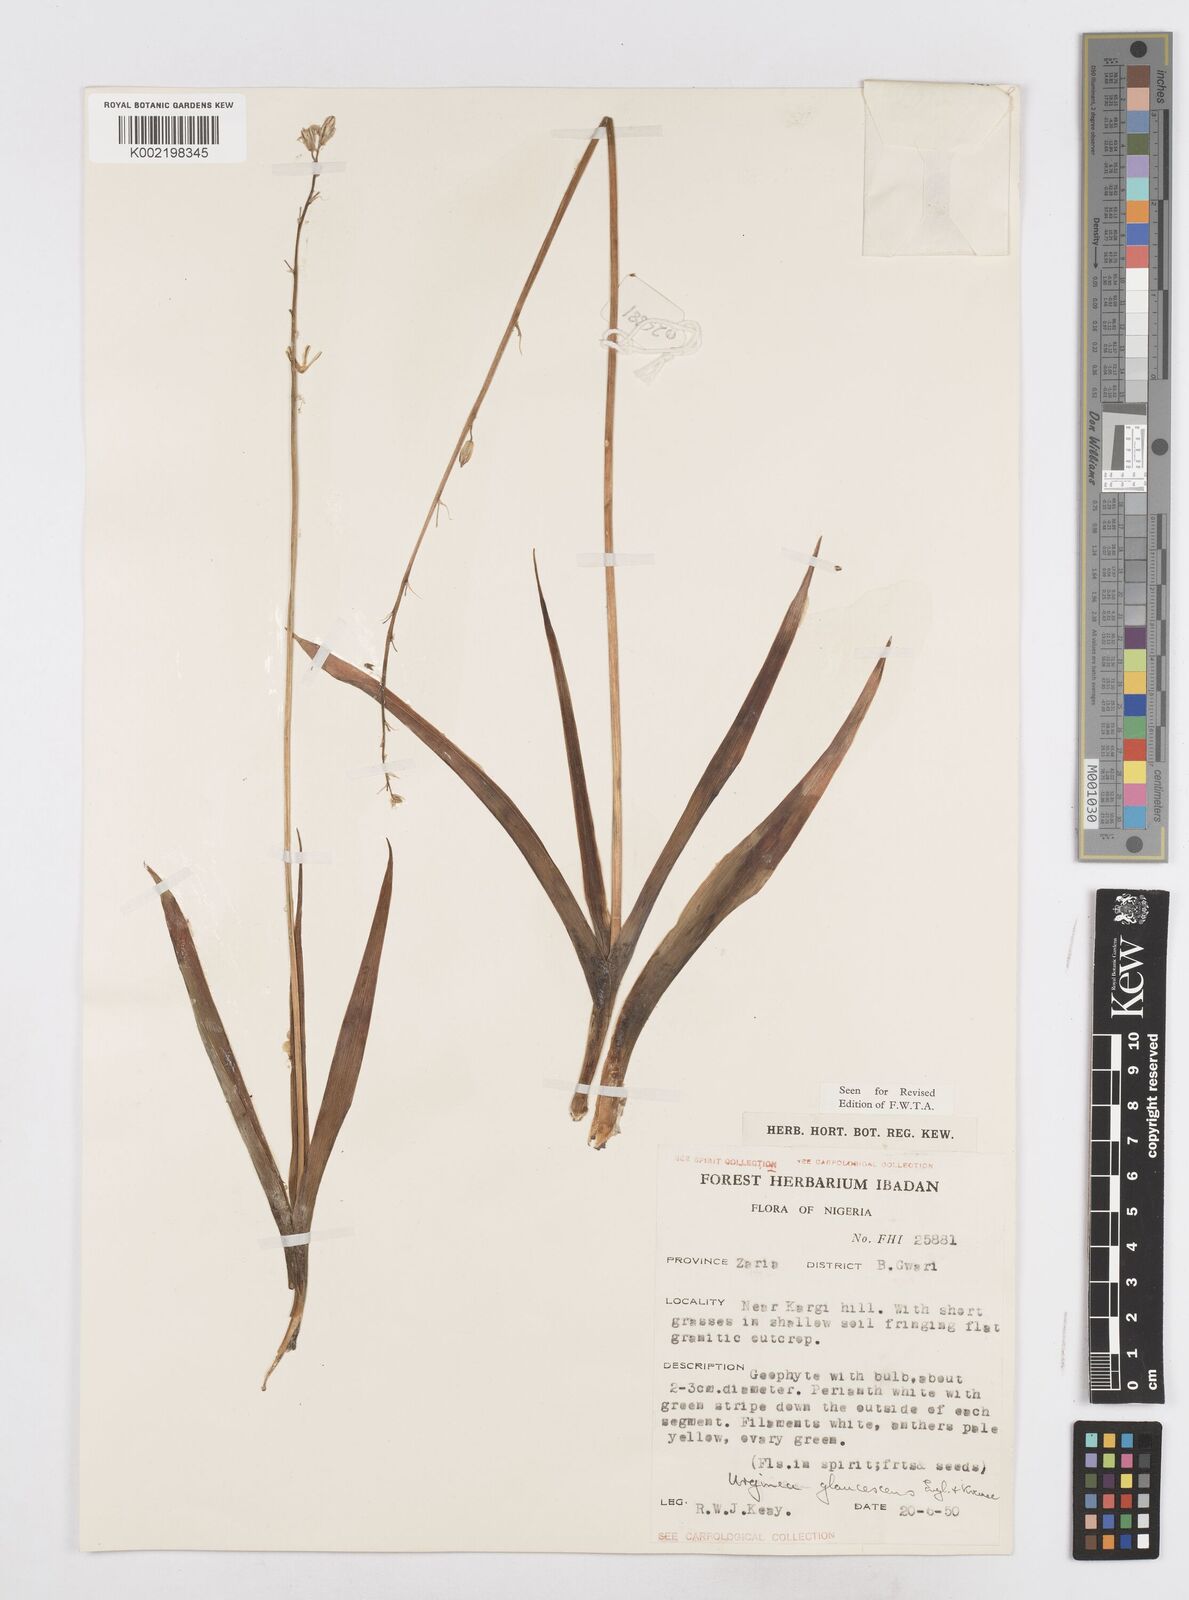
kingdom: Plantae
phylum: Tracheophyta
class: Liliopsida
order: Asparagales
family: Asparagaceae
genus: Ledebouria
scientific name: Ledebouria ensifolia
